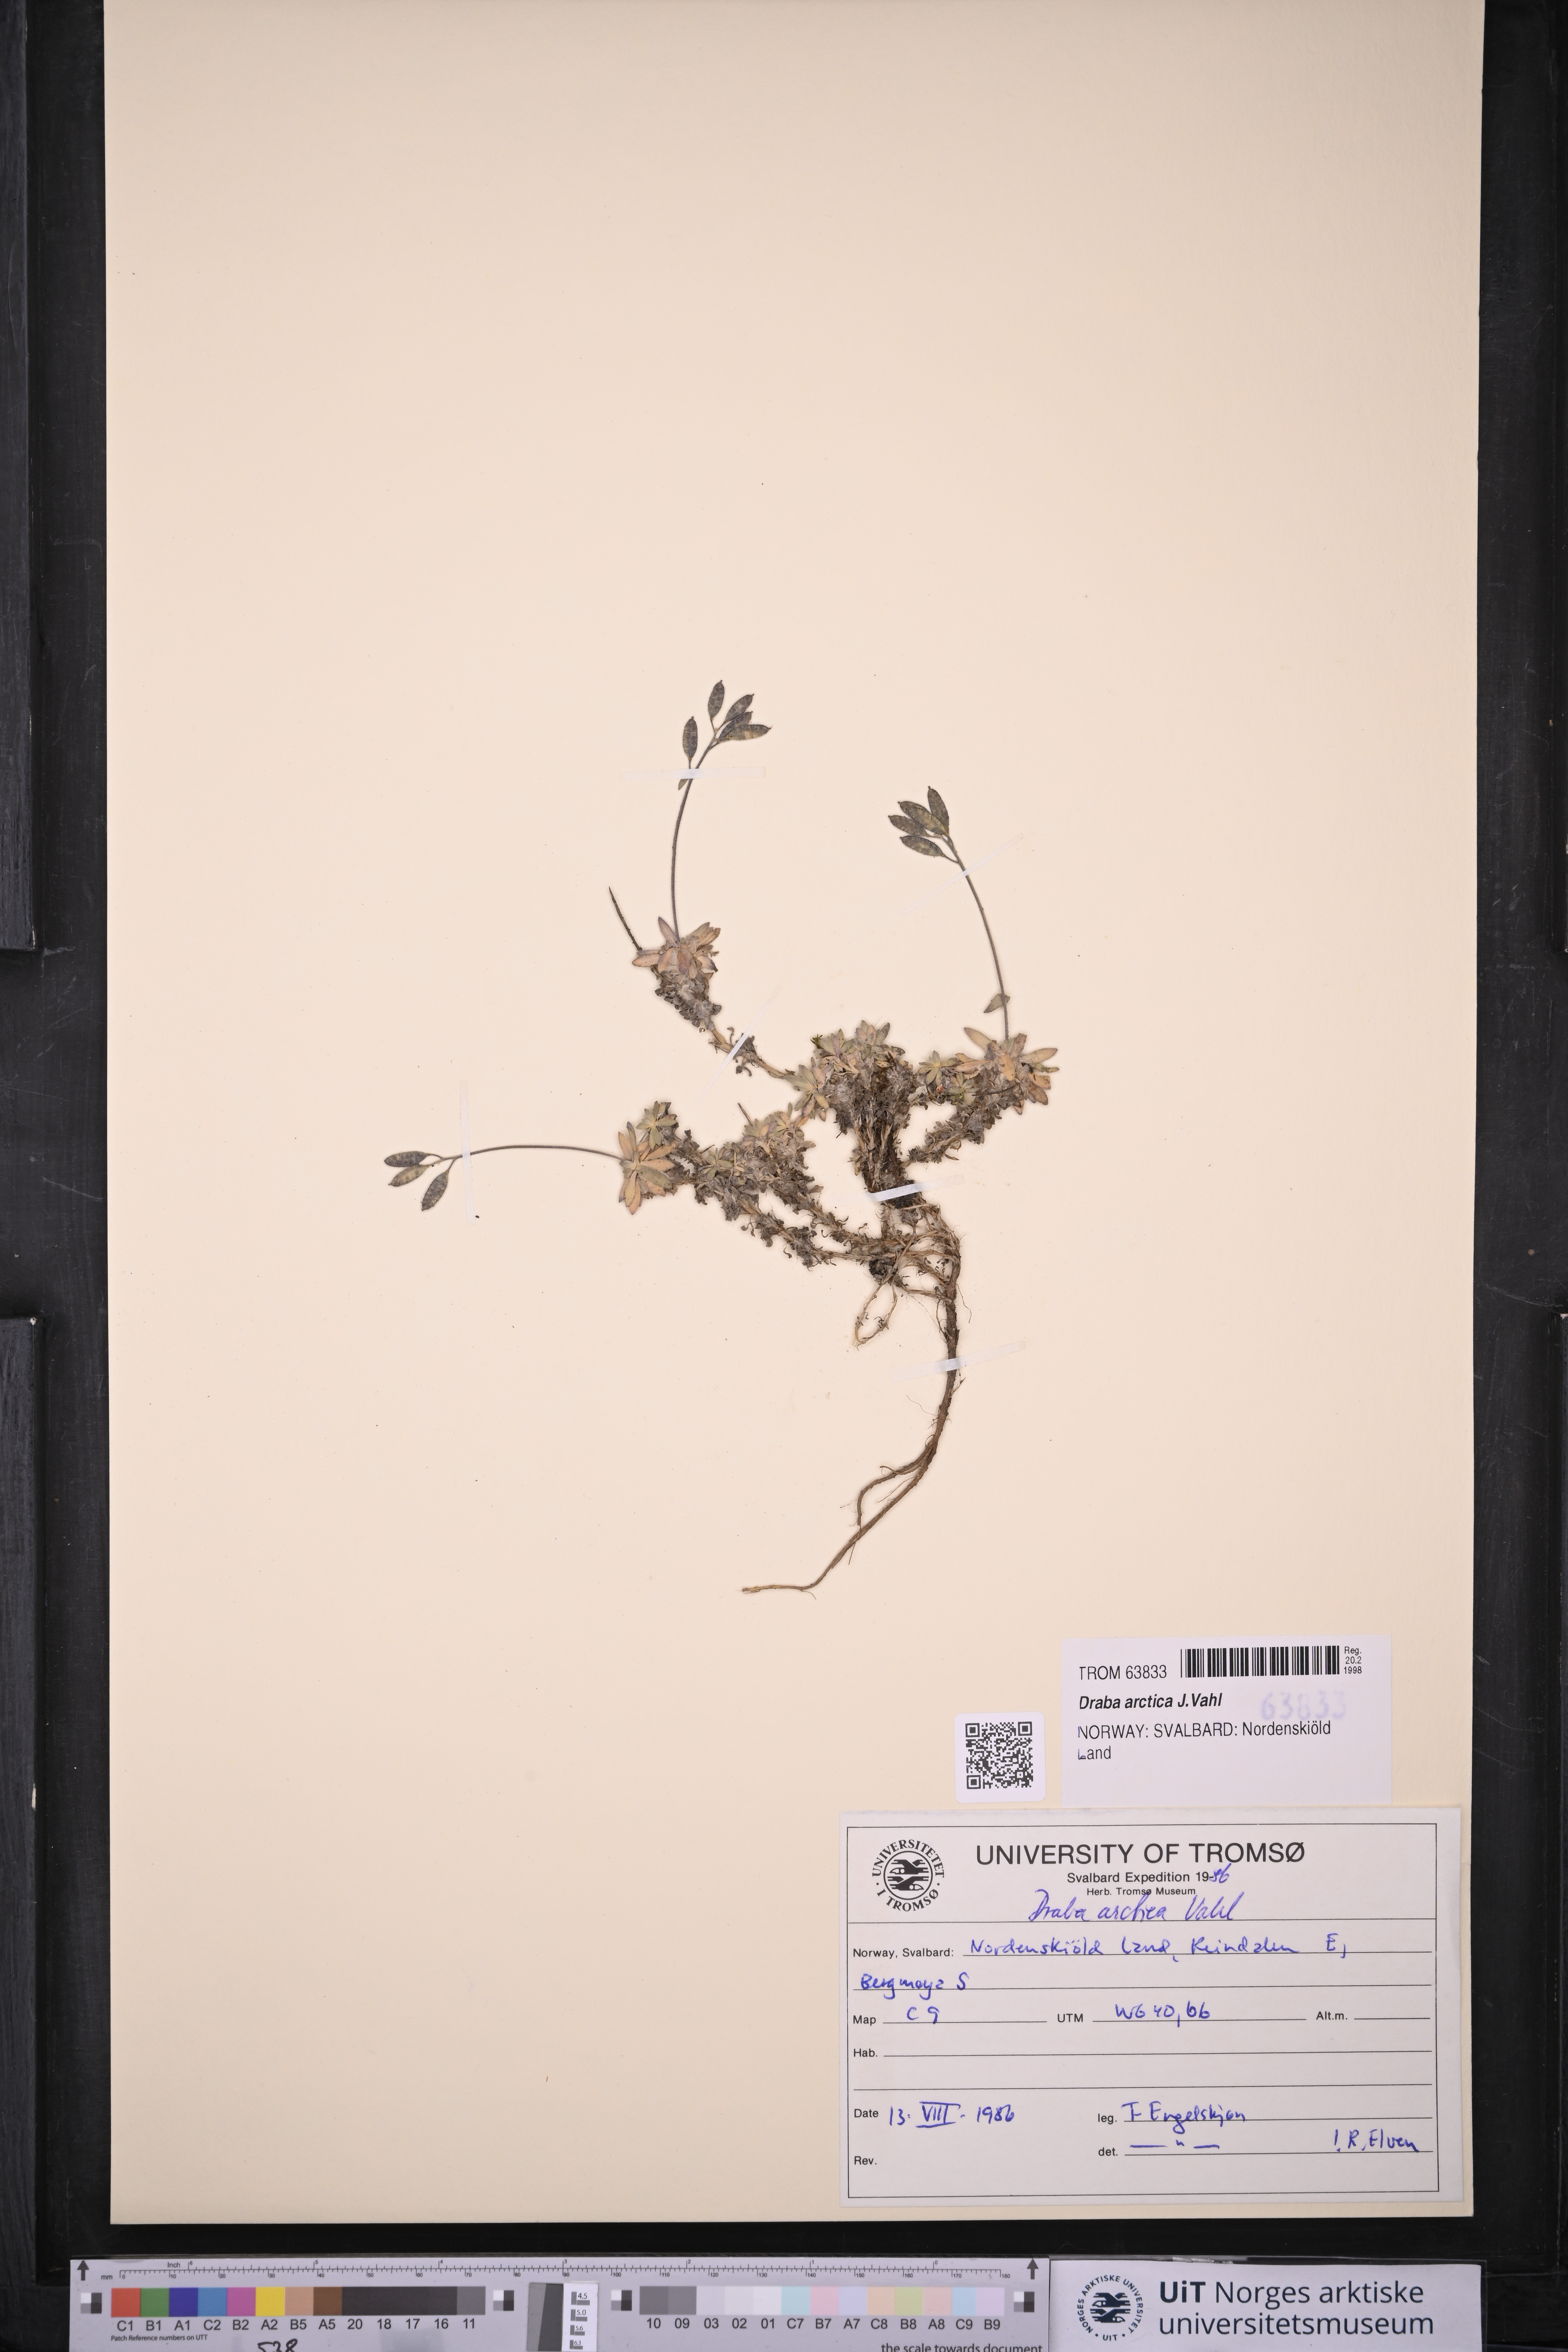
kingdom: Plantae
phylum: Tracheophyta
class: Magnoliopsida
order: Brassicales
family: Brassicaceae
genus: Draba
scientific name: Draba arctica
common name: Arctic draba
